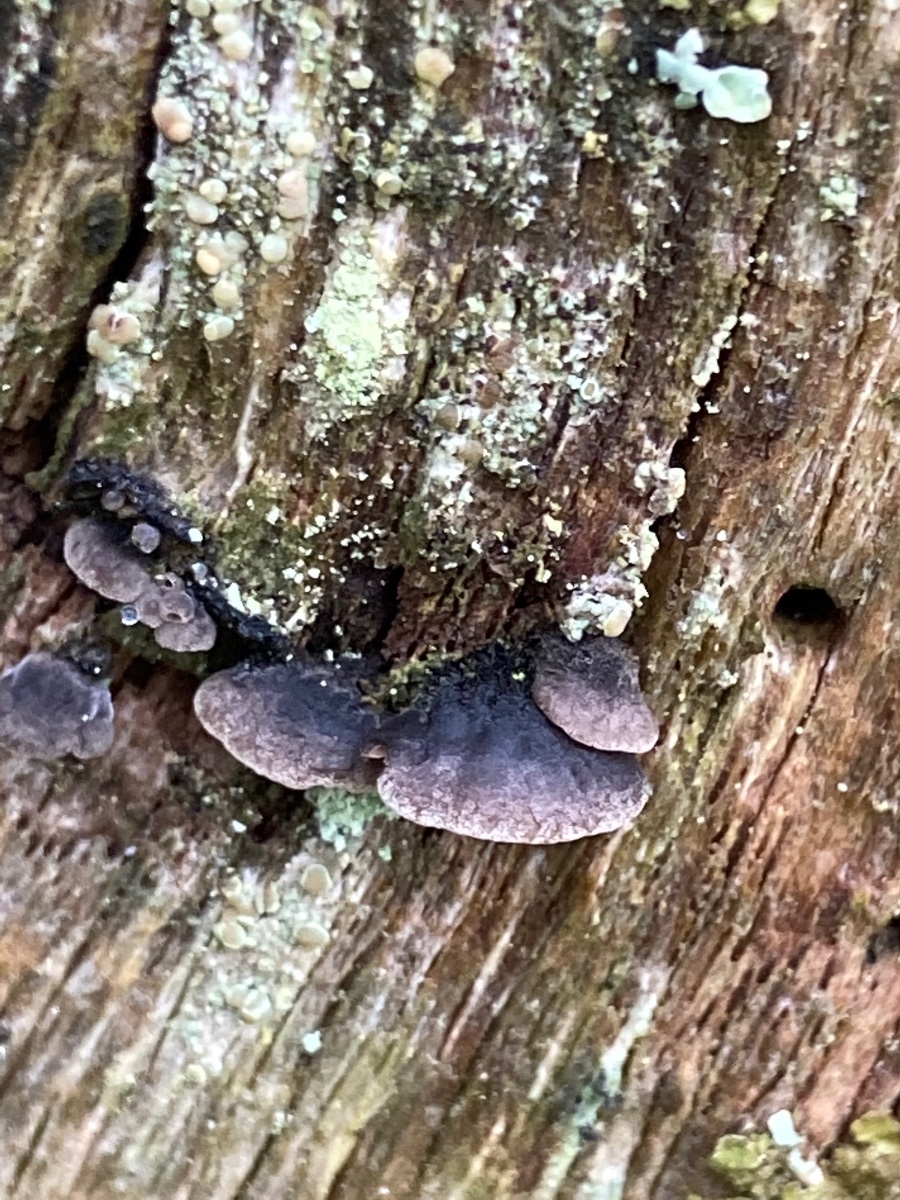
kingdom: Fungi
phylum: Basidiomycota
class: Agaricomycetes
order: Agaricales
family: Pleurotaceae
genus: Resupinatus
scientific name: Resupinatus trichotis
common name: mørkfiltet barkhat
